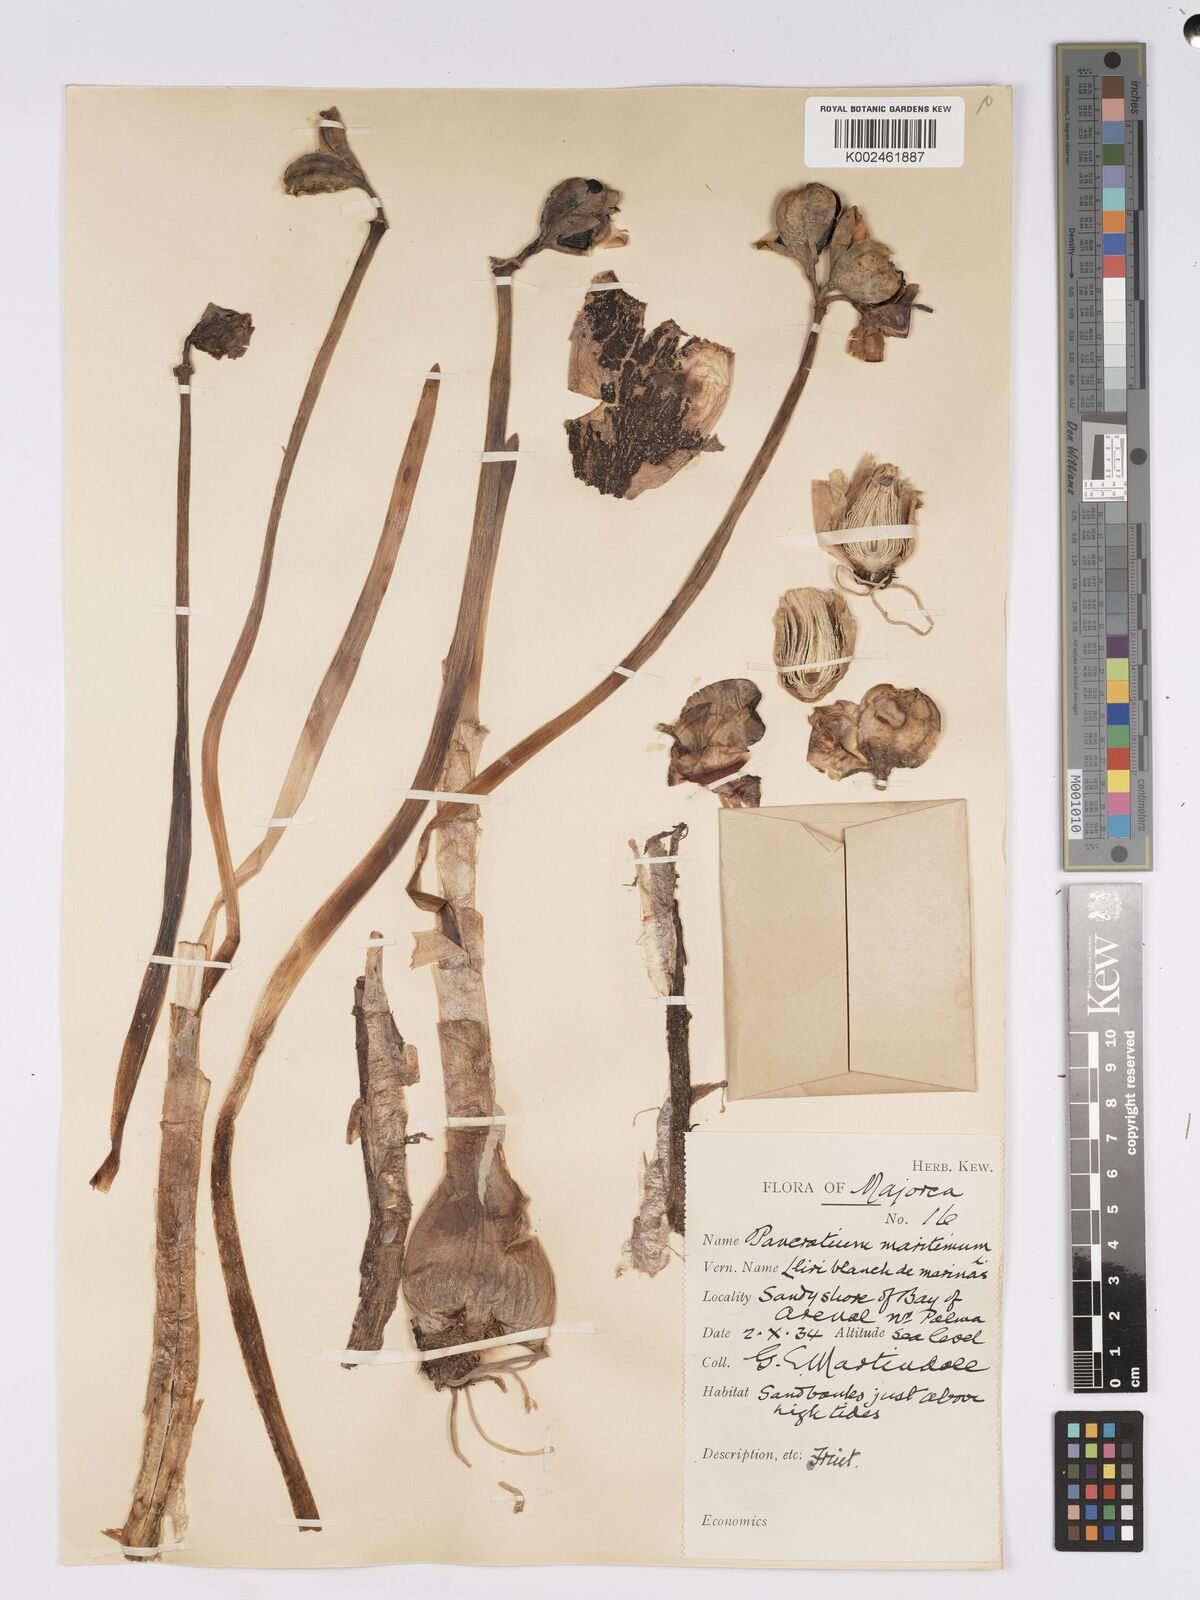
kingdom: Plantae
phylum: Tracheophyta
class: Liliopsida
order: Asparagales
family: Amaryllidaceae
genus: Pancratium
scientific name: Pancratium maritimum
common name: Sea-daffodil
